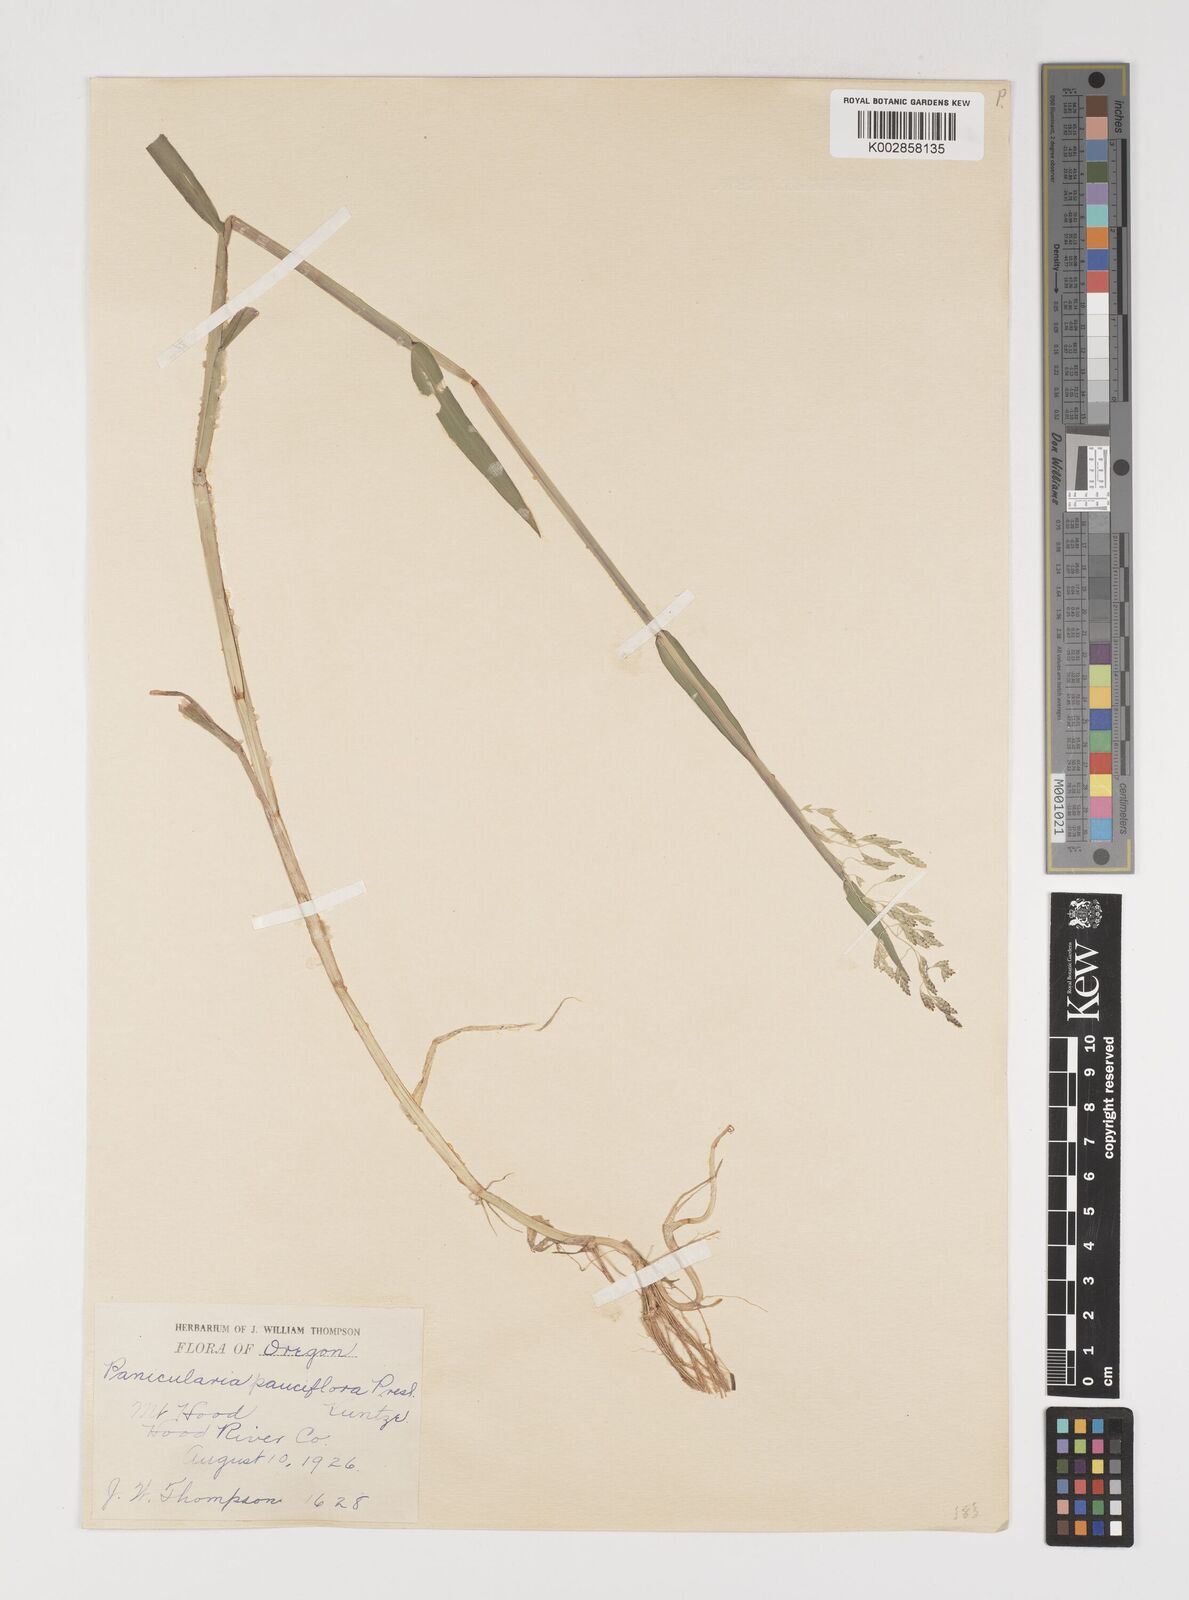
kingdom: Plantae
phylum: Tracheophyta
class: Liliopsida
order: Poales
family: Poaceae
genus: Torreyochloa
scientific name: Torreyochloa pallida
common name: Pale false mannagrass
